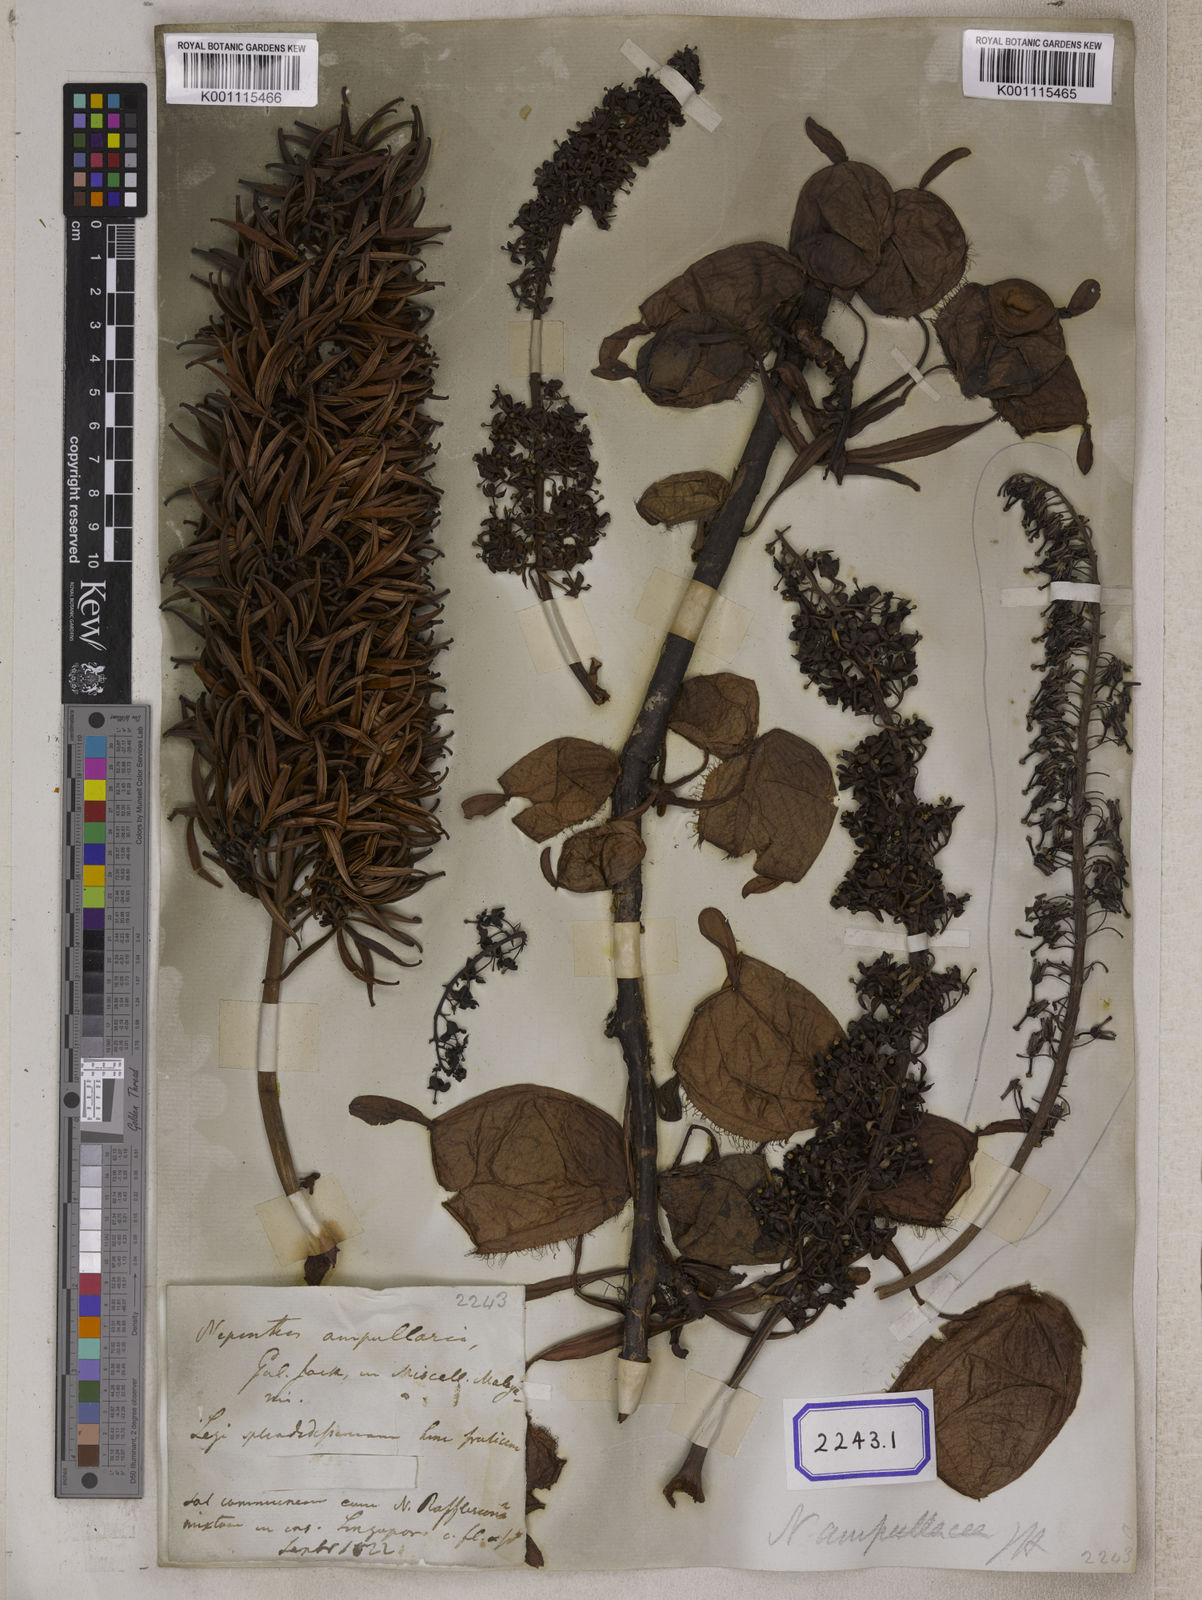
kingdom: Plantae
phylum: Tracheophyta
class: Magnoliopsida
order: Caryophyllales
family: Nepenthaceae
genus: Nepenthes
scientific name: Nepenthes ampullaria
